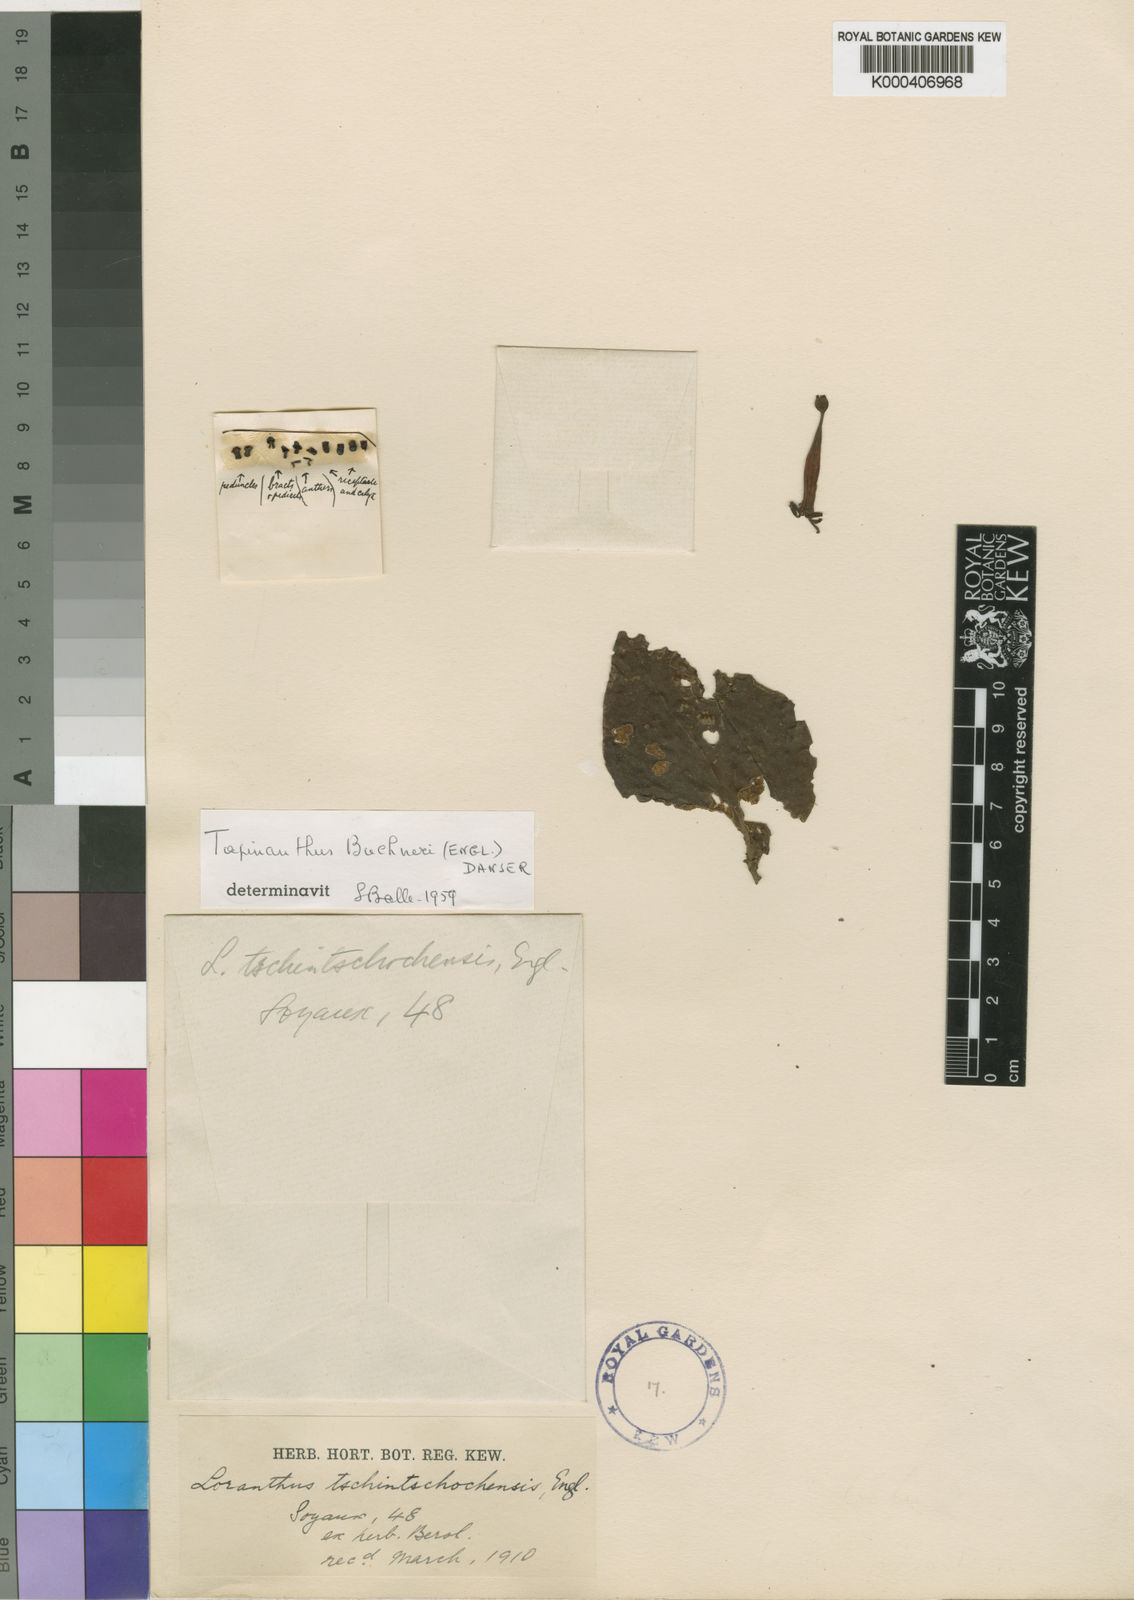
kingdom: Plantae
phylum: Tracheophyta
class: Magnoliopsida
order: Santalales
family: Loranthaceae
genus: Tapinanthus
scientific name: Tapinanthus buchneri
